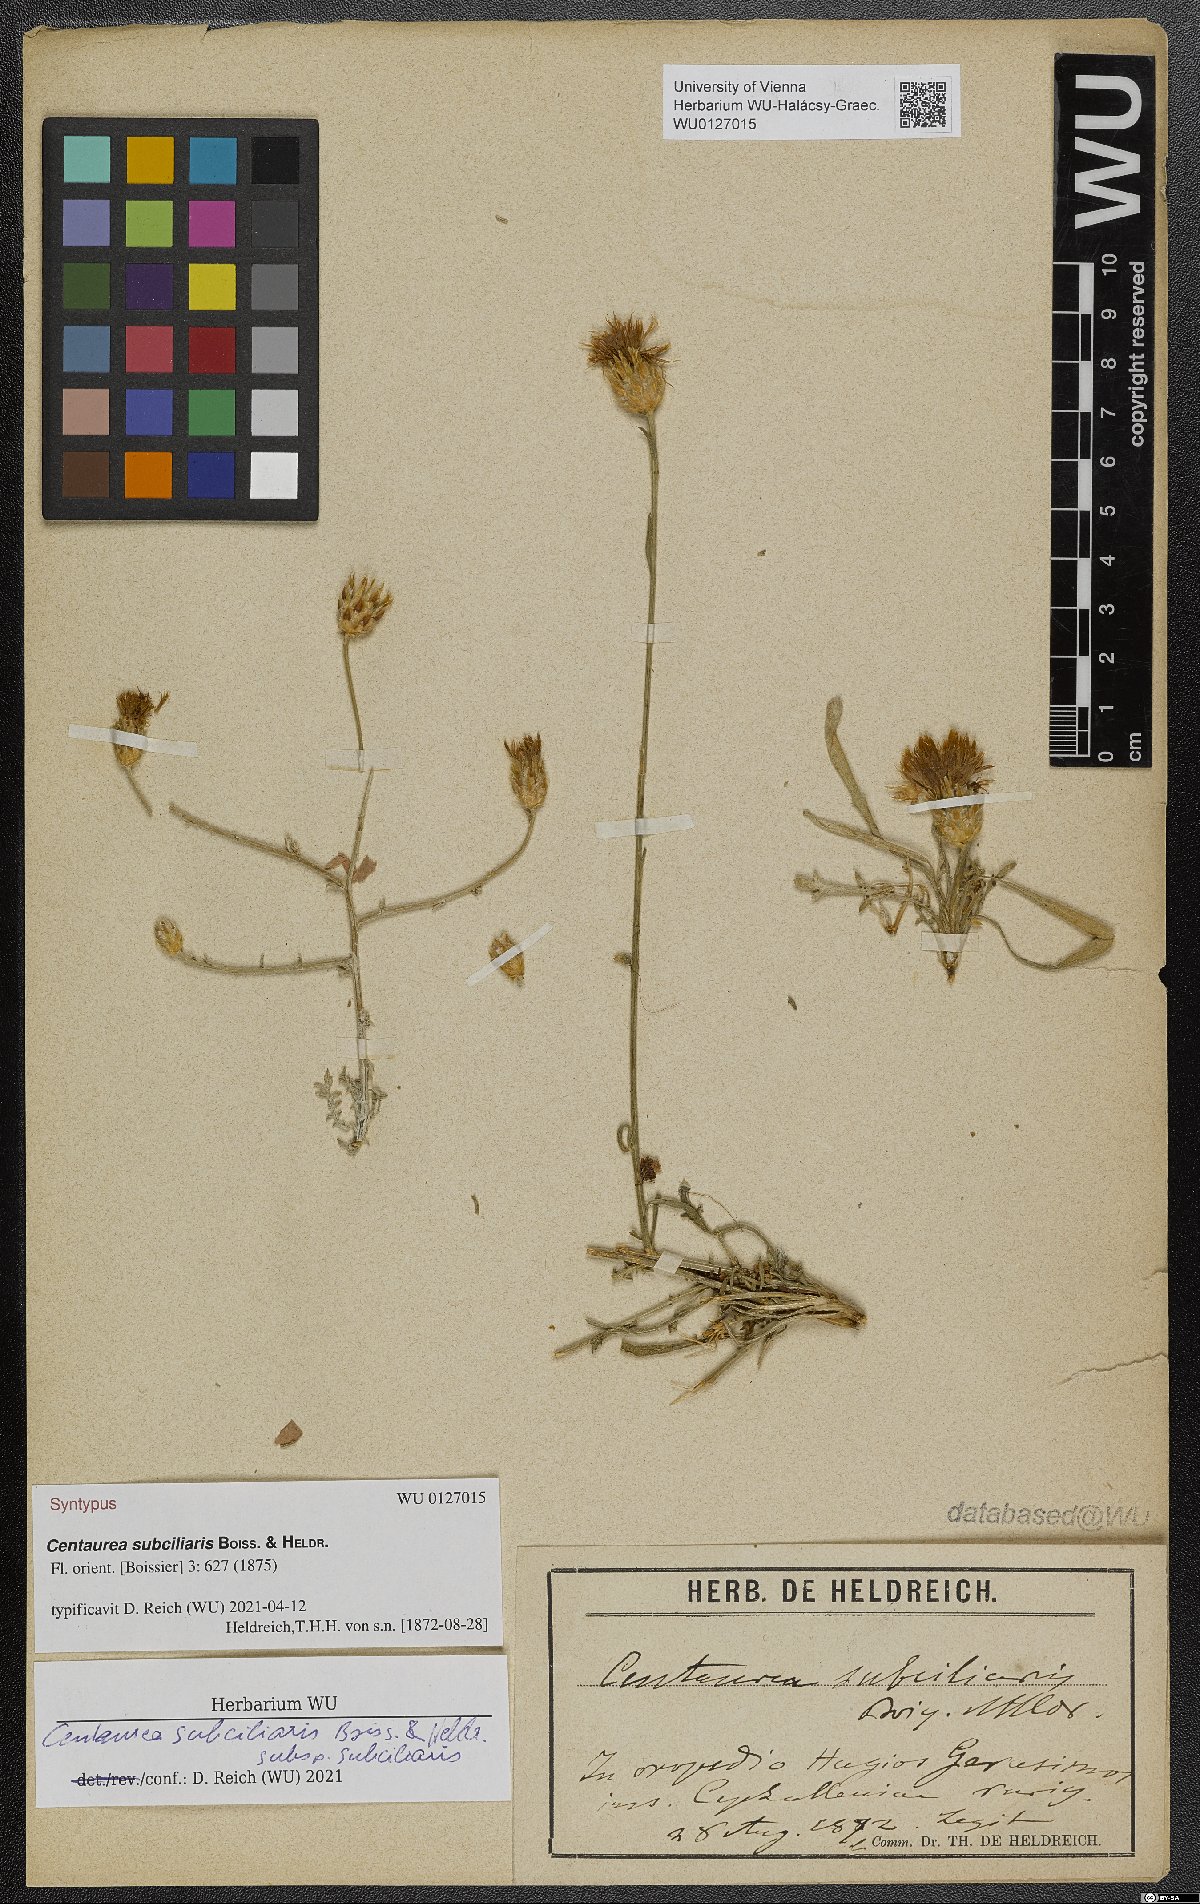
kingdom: Plantae
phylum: Tracheophyta
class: Magnoliopsida
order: Asterales
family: Asteraceae
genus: Centaurea
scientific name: Centaurea subciliaris
